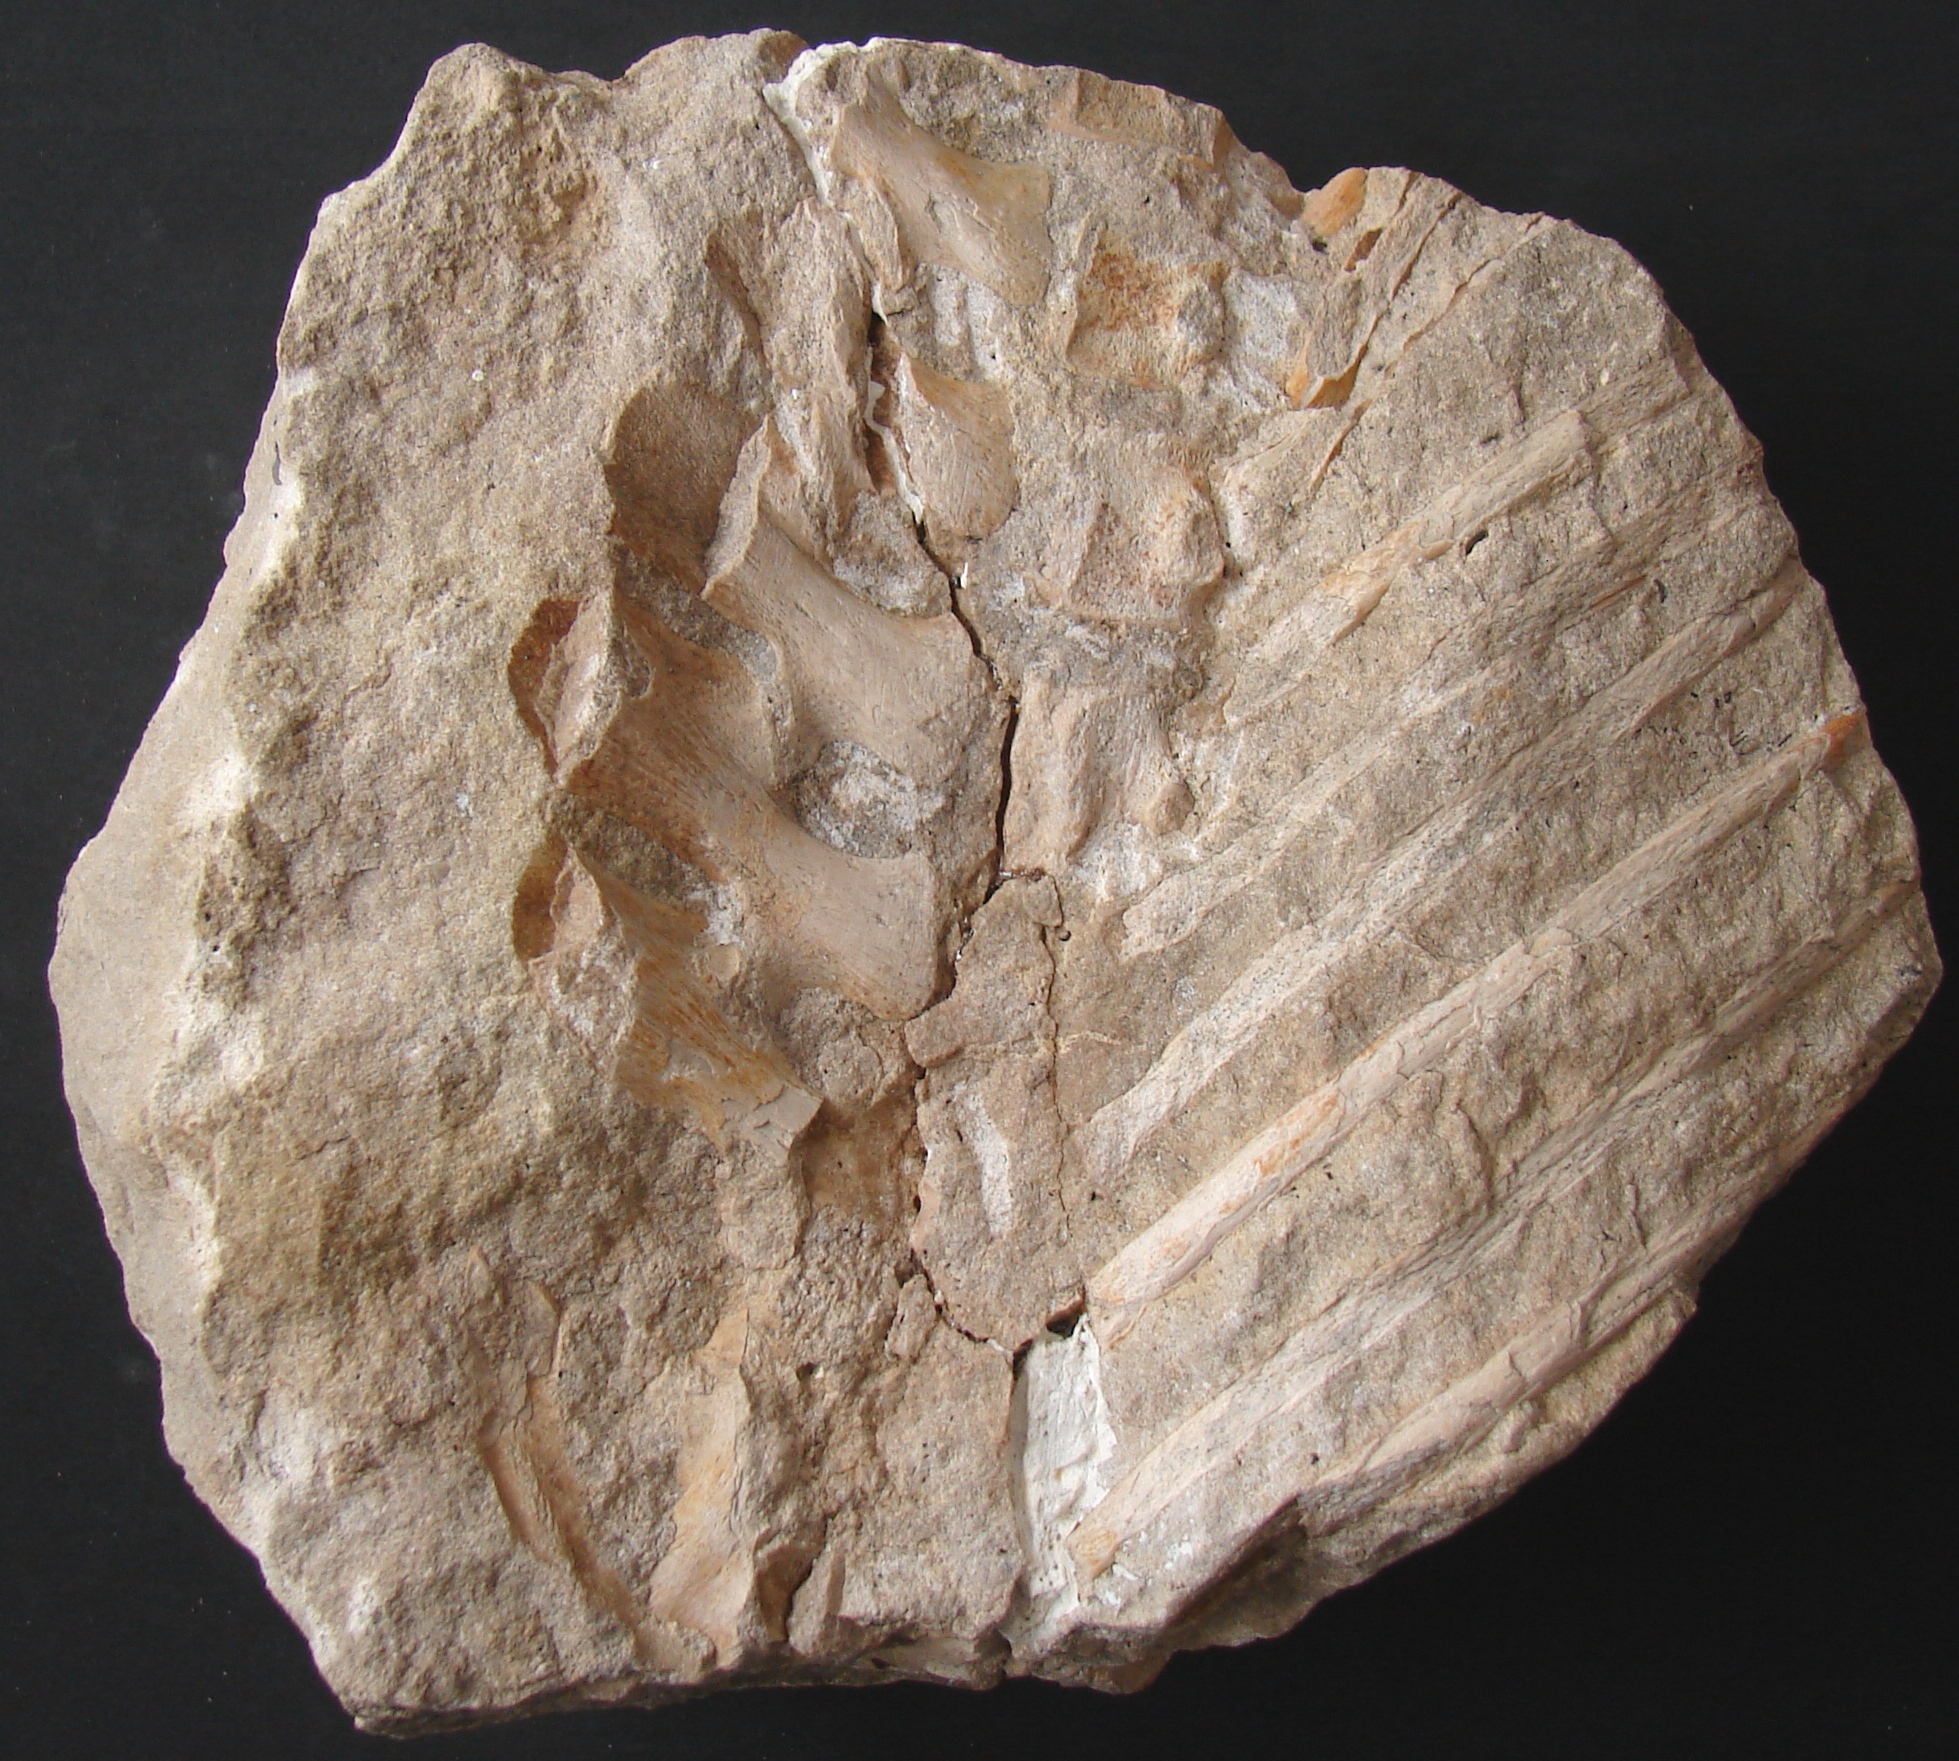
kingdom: Animalia
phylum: Chordata
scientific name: Chordata
